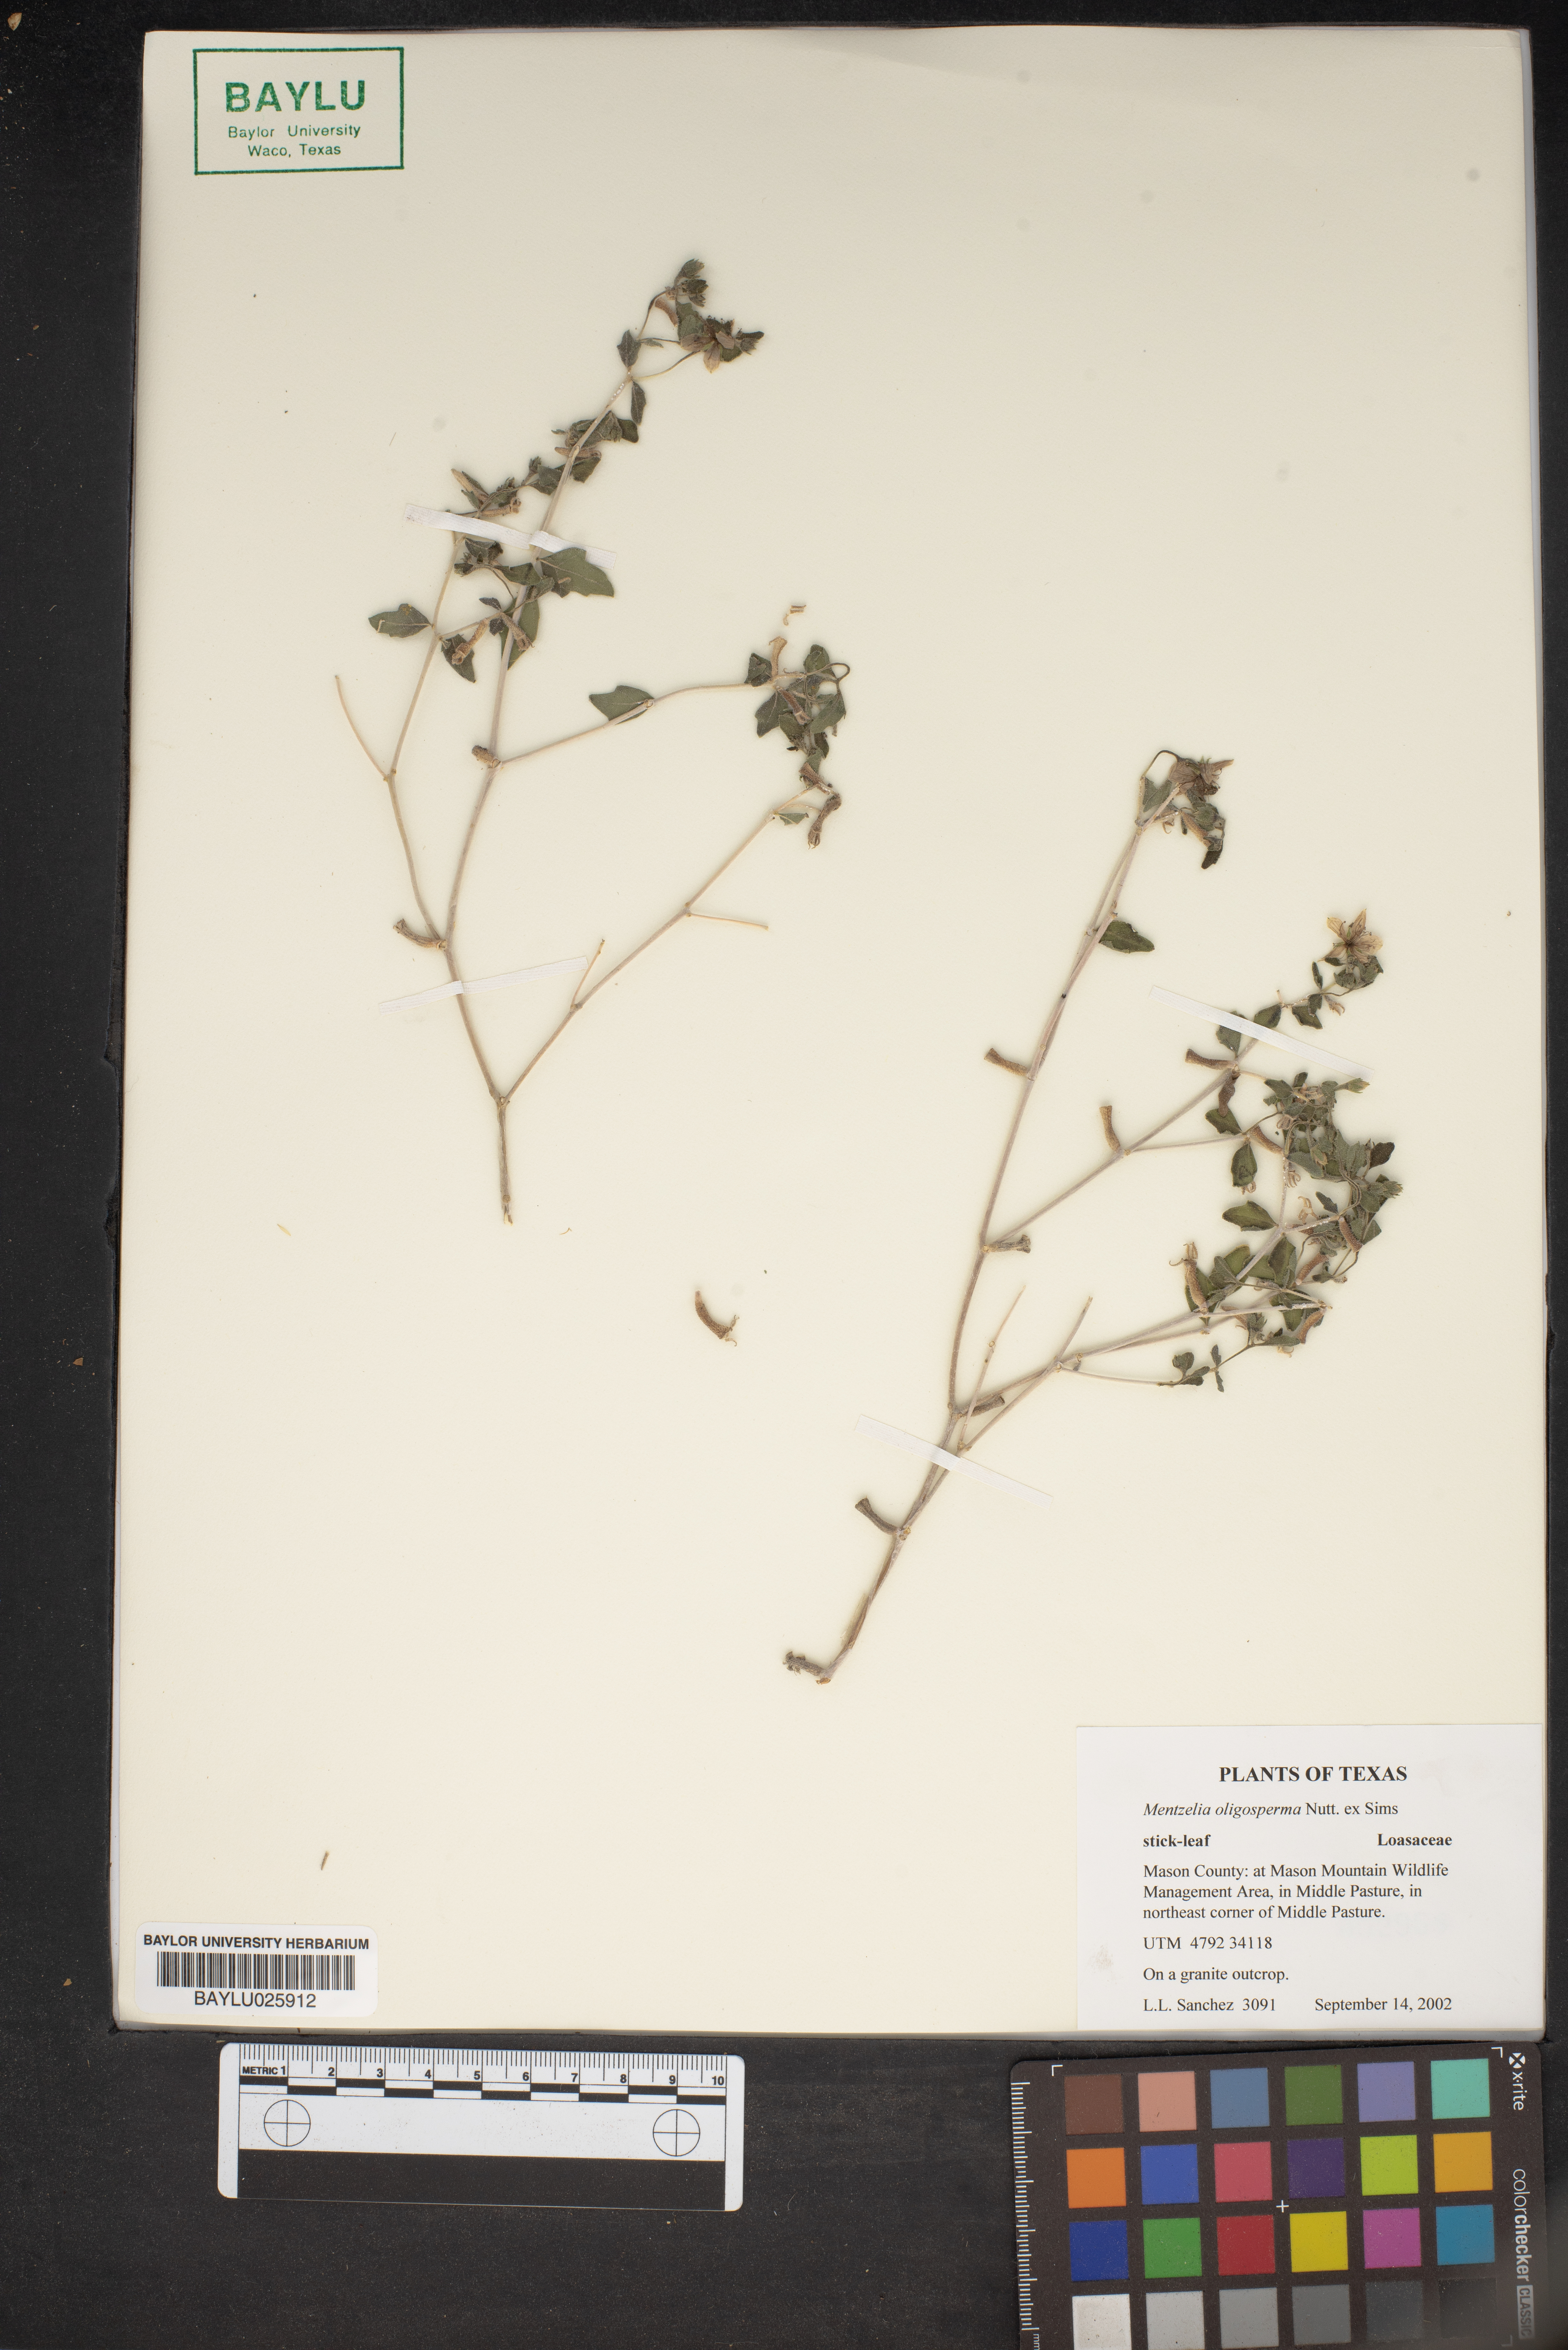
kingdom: Plantae
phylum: Tracheophyta
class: Magnoliopsida
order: Cornales
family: Loasaceae
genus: Mentzelia
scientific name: Mentzelia oligosperma
